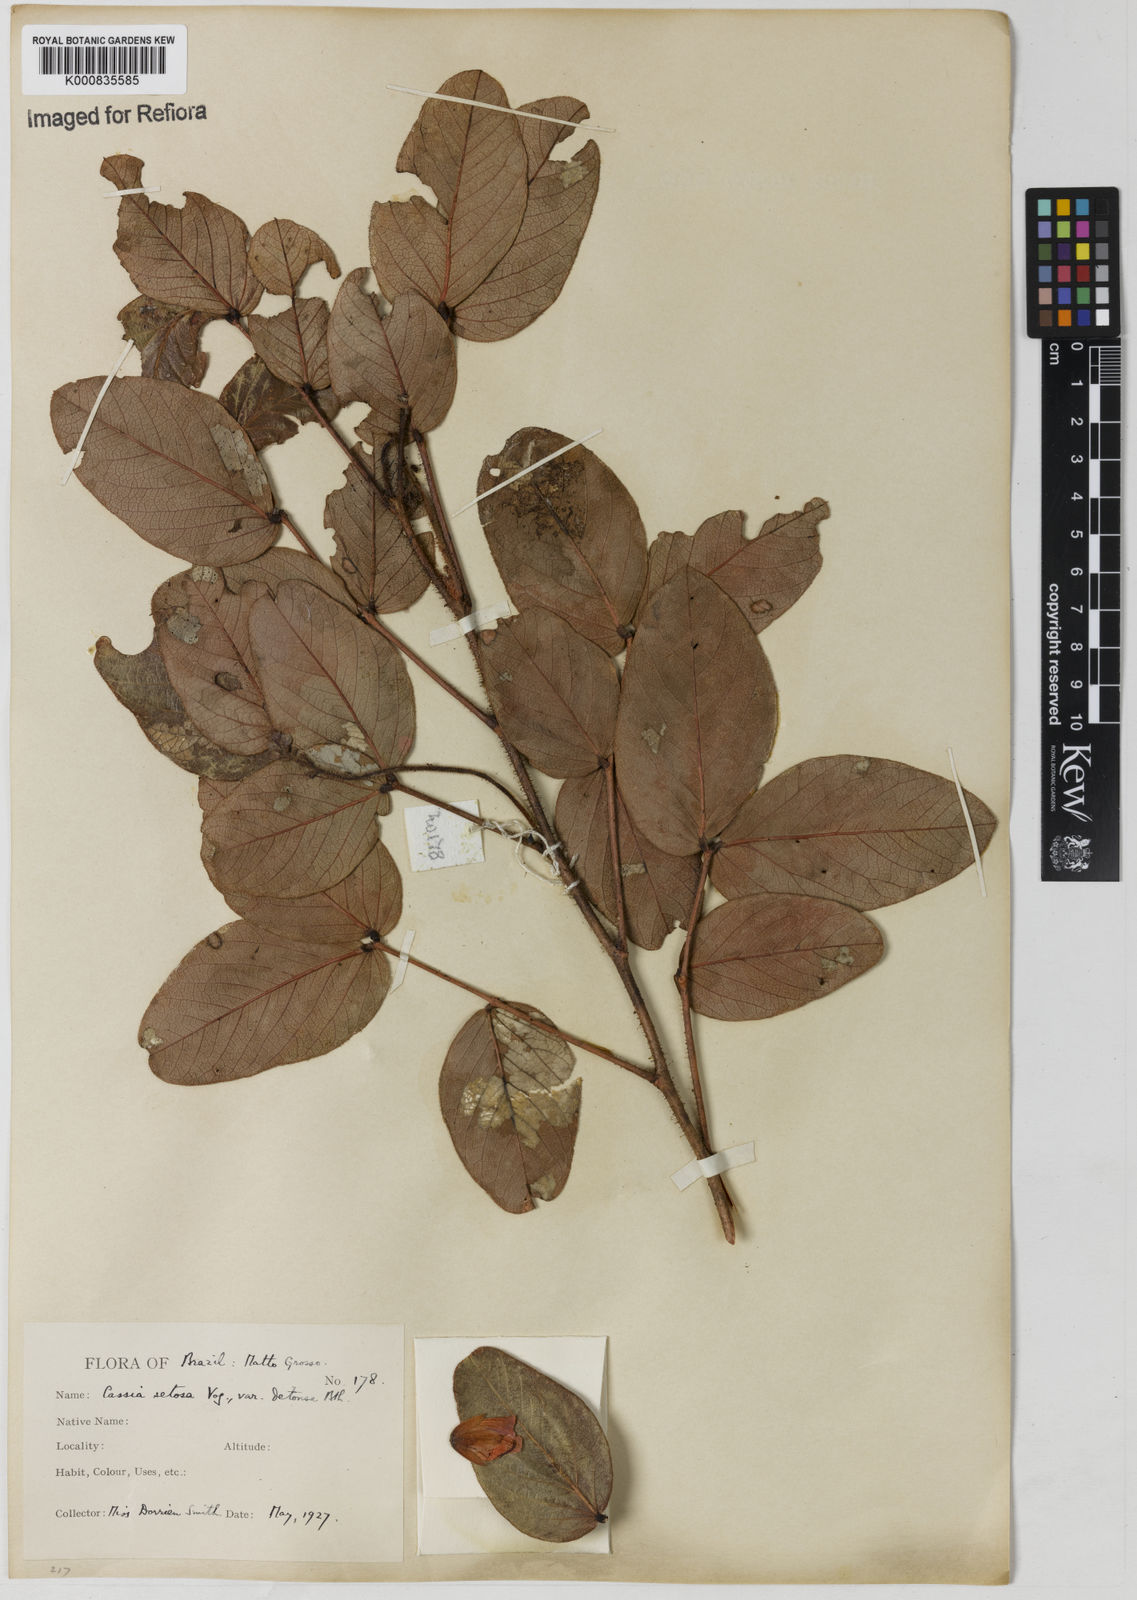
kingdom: Plantae
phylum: Tracheophyta
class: Magnoliopsida
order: Fabales
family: Fabaceae
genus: Chamaecrista
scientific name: Chamaecrista setosa
